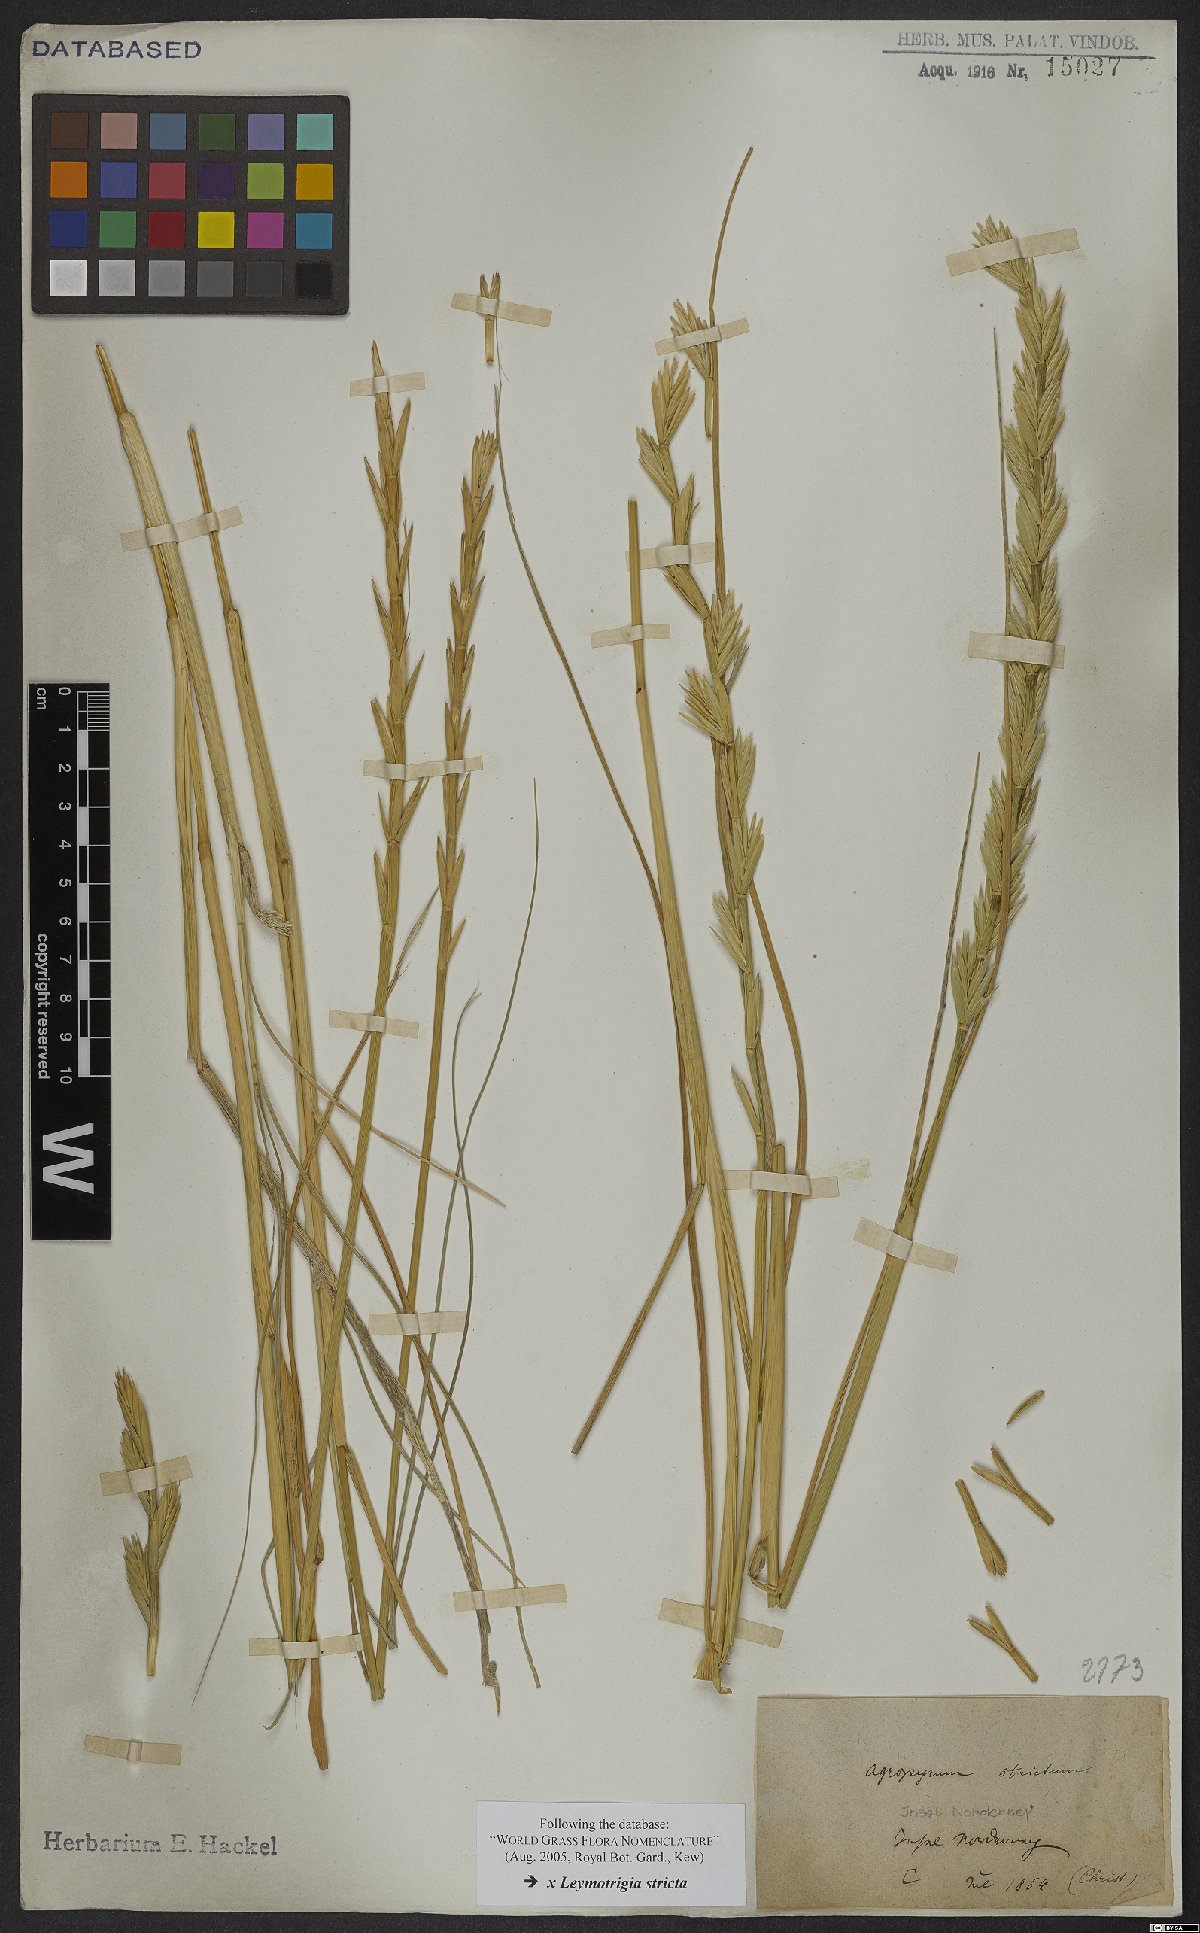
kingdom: Plantae
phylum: Tracheophyta
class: Liliopsida
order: Poales
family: Poaceae
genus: Elyleymus
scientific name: Elyleymus strictus
